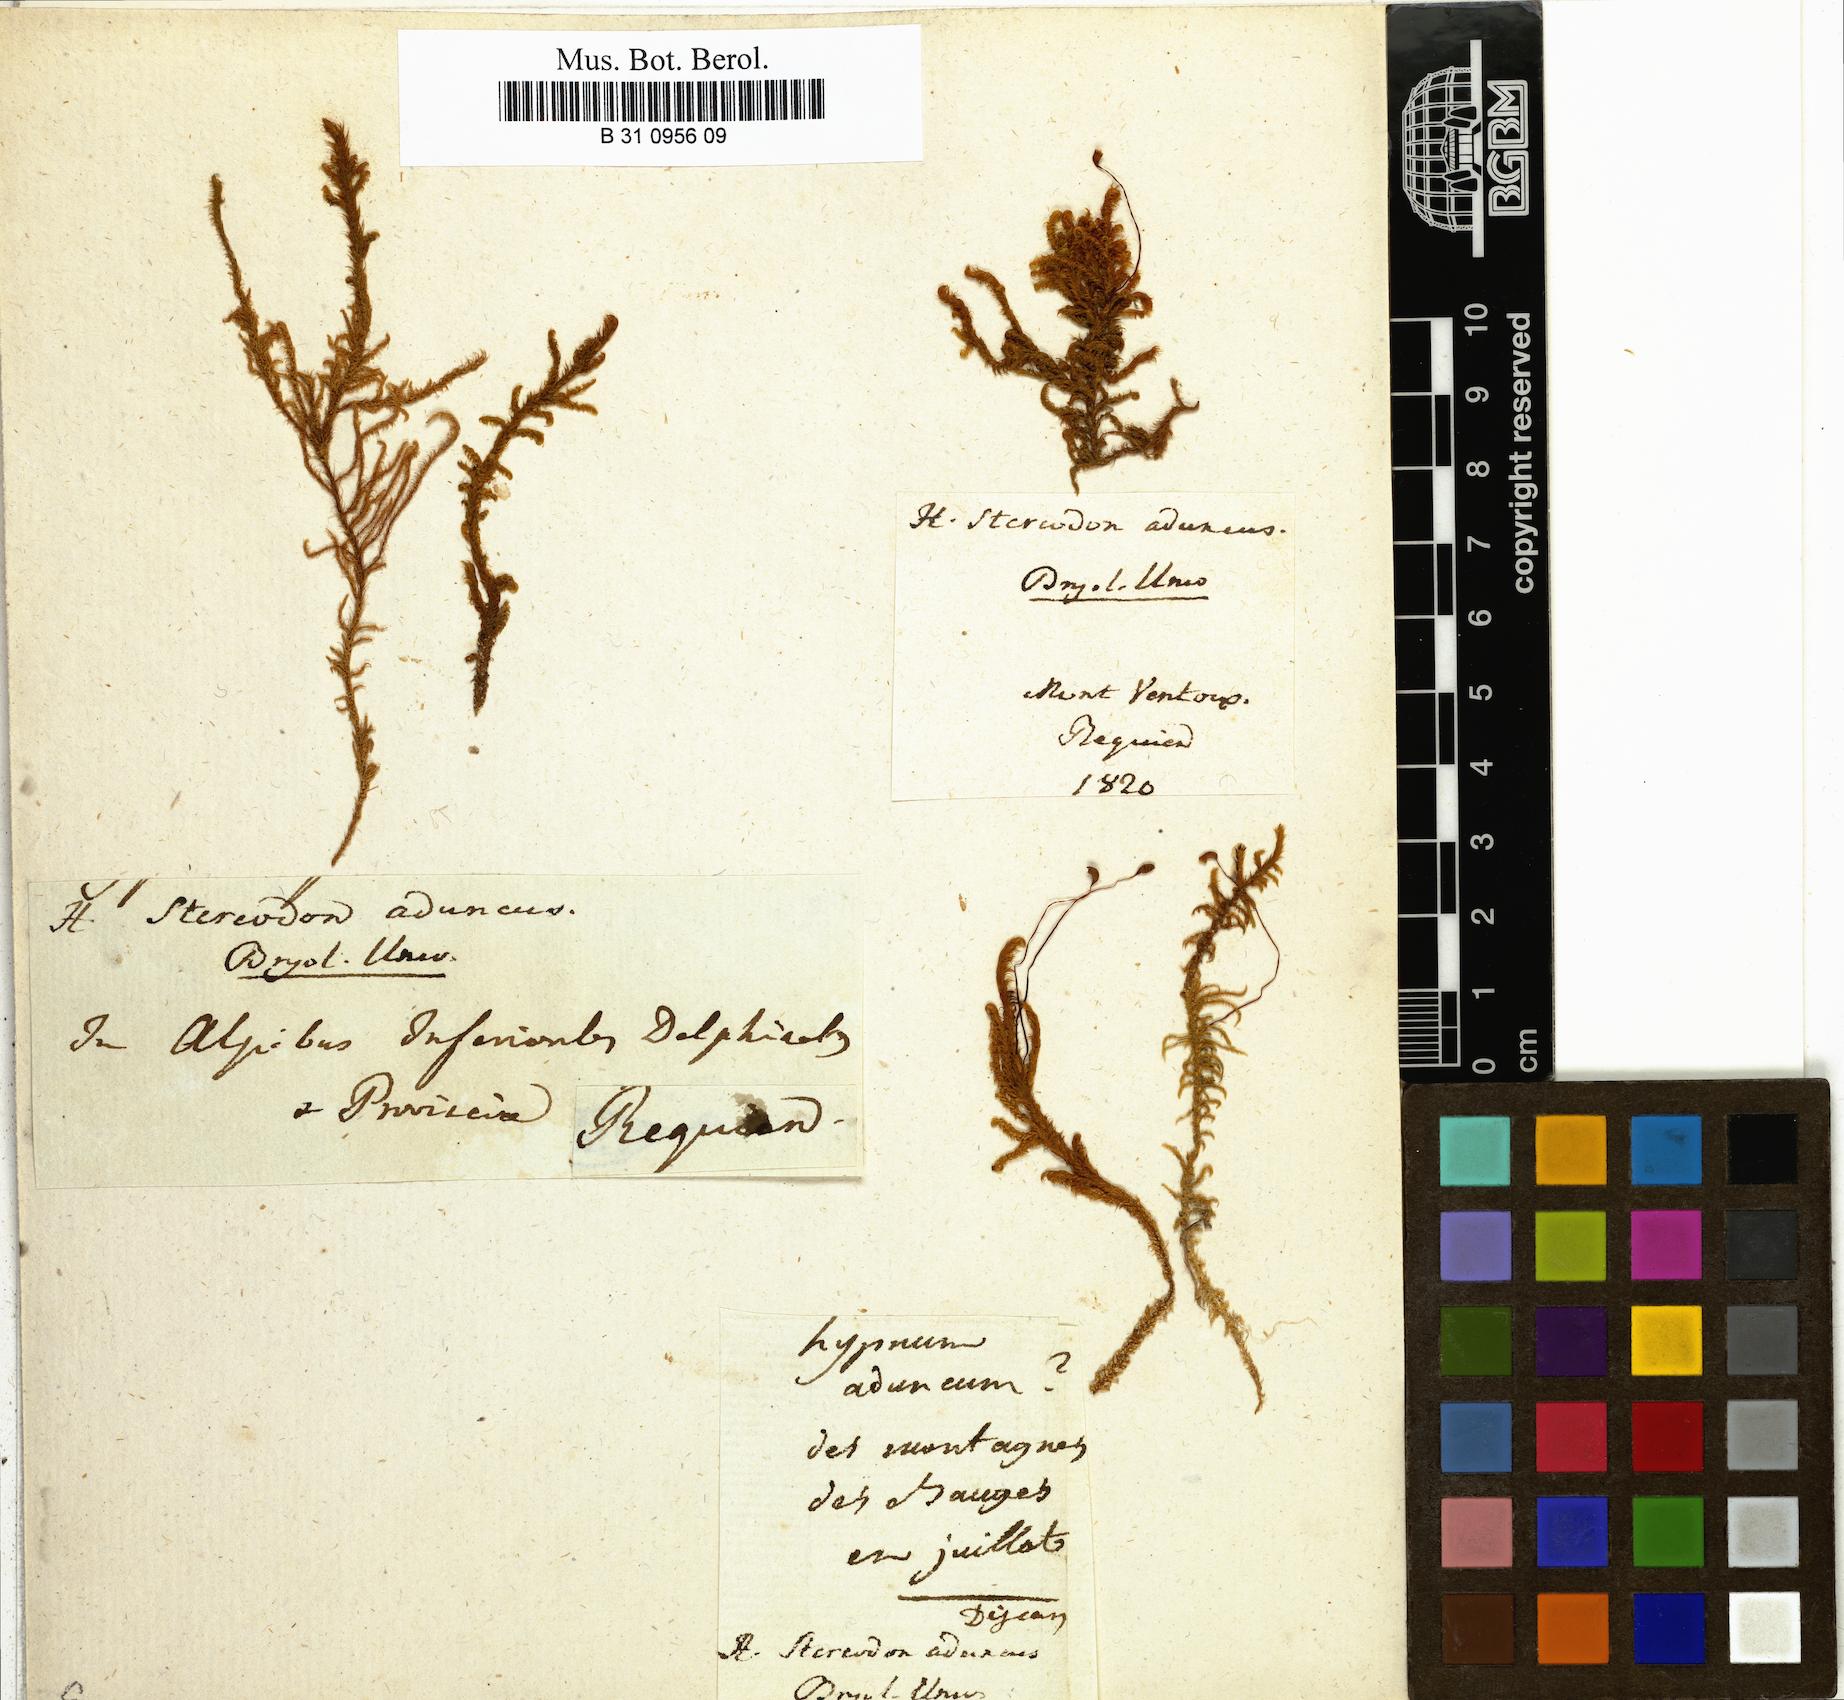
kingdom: Plantae
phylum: Bryophyta
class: Bryopsida
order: Hypnales
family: Amblystegiaceae
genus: Drepanocladus
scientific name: Drepanocladus aduncus
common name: Knieff's hook moss
